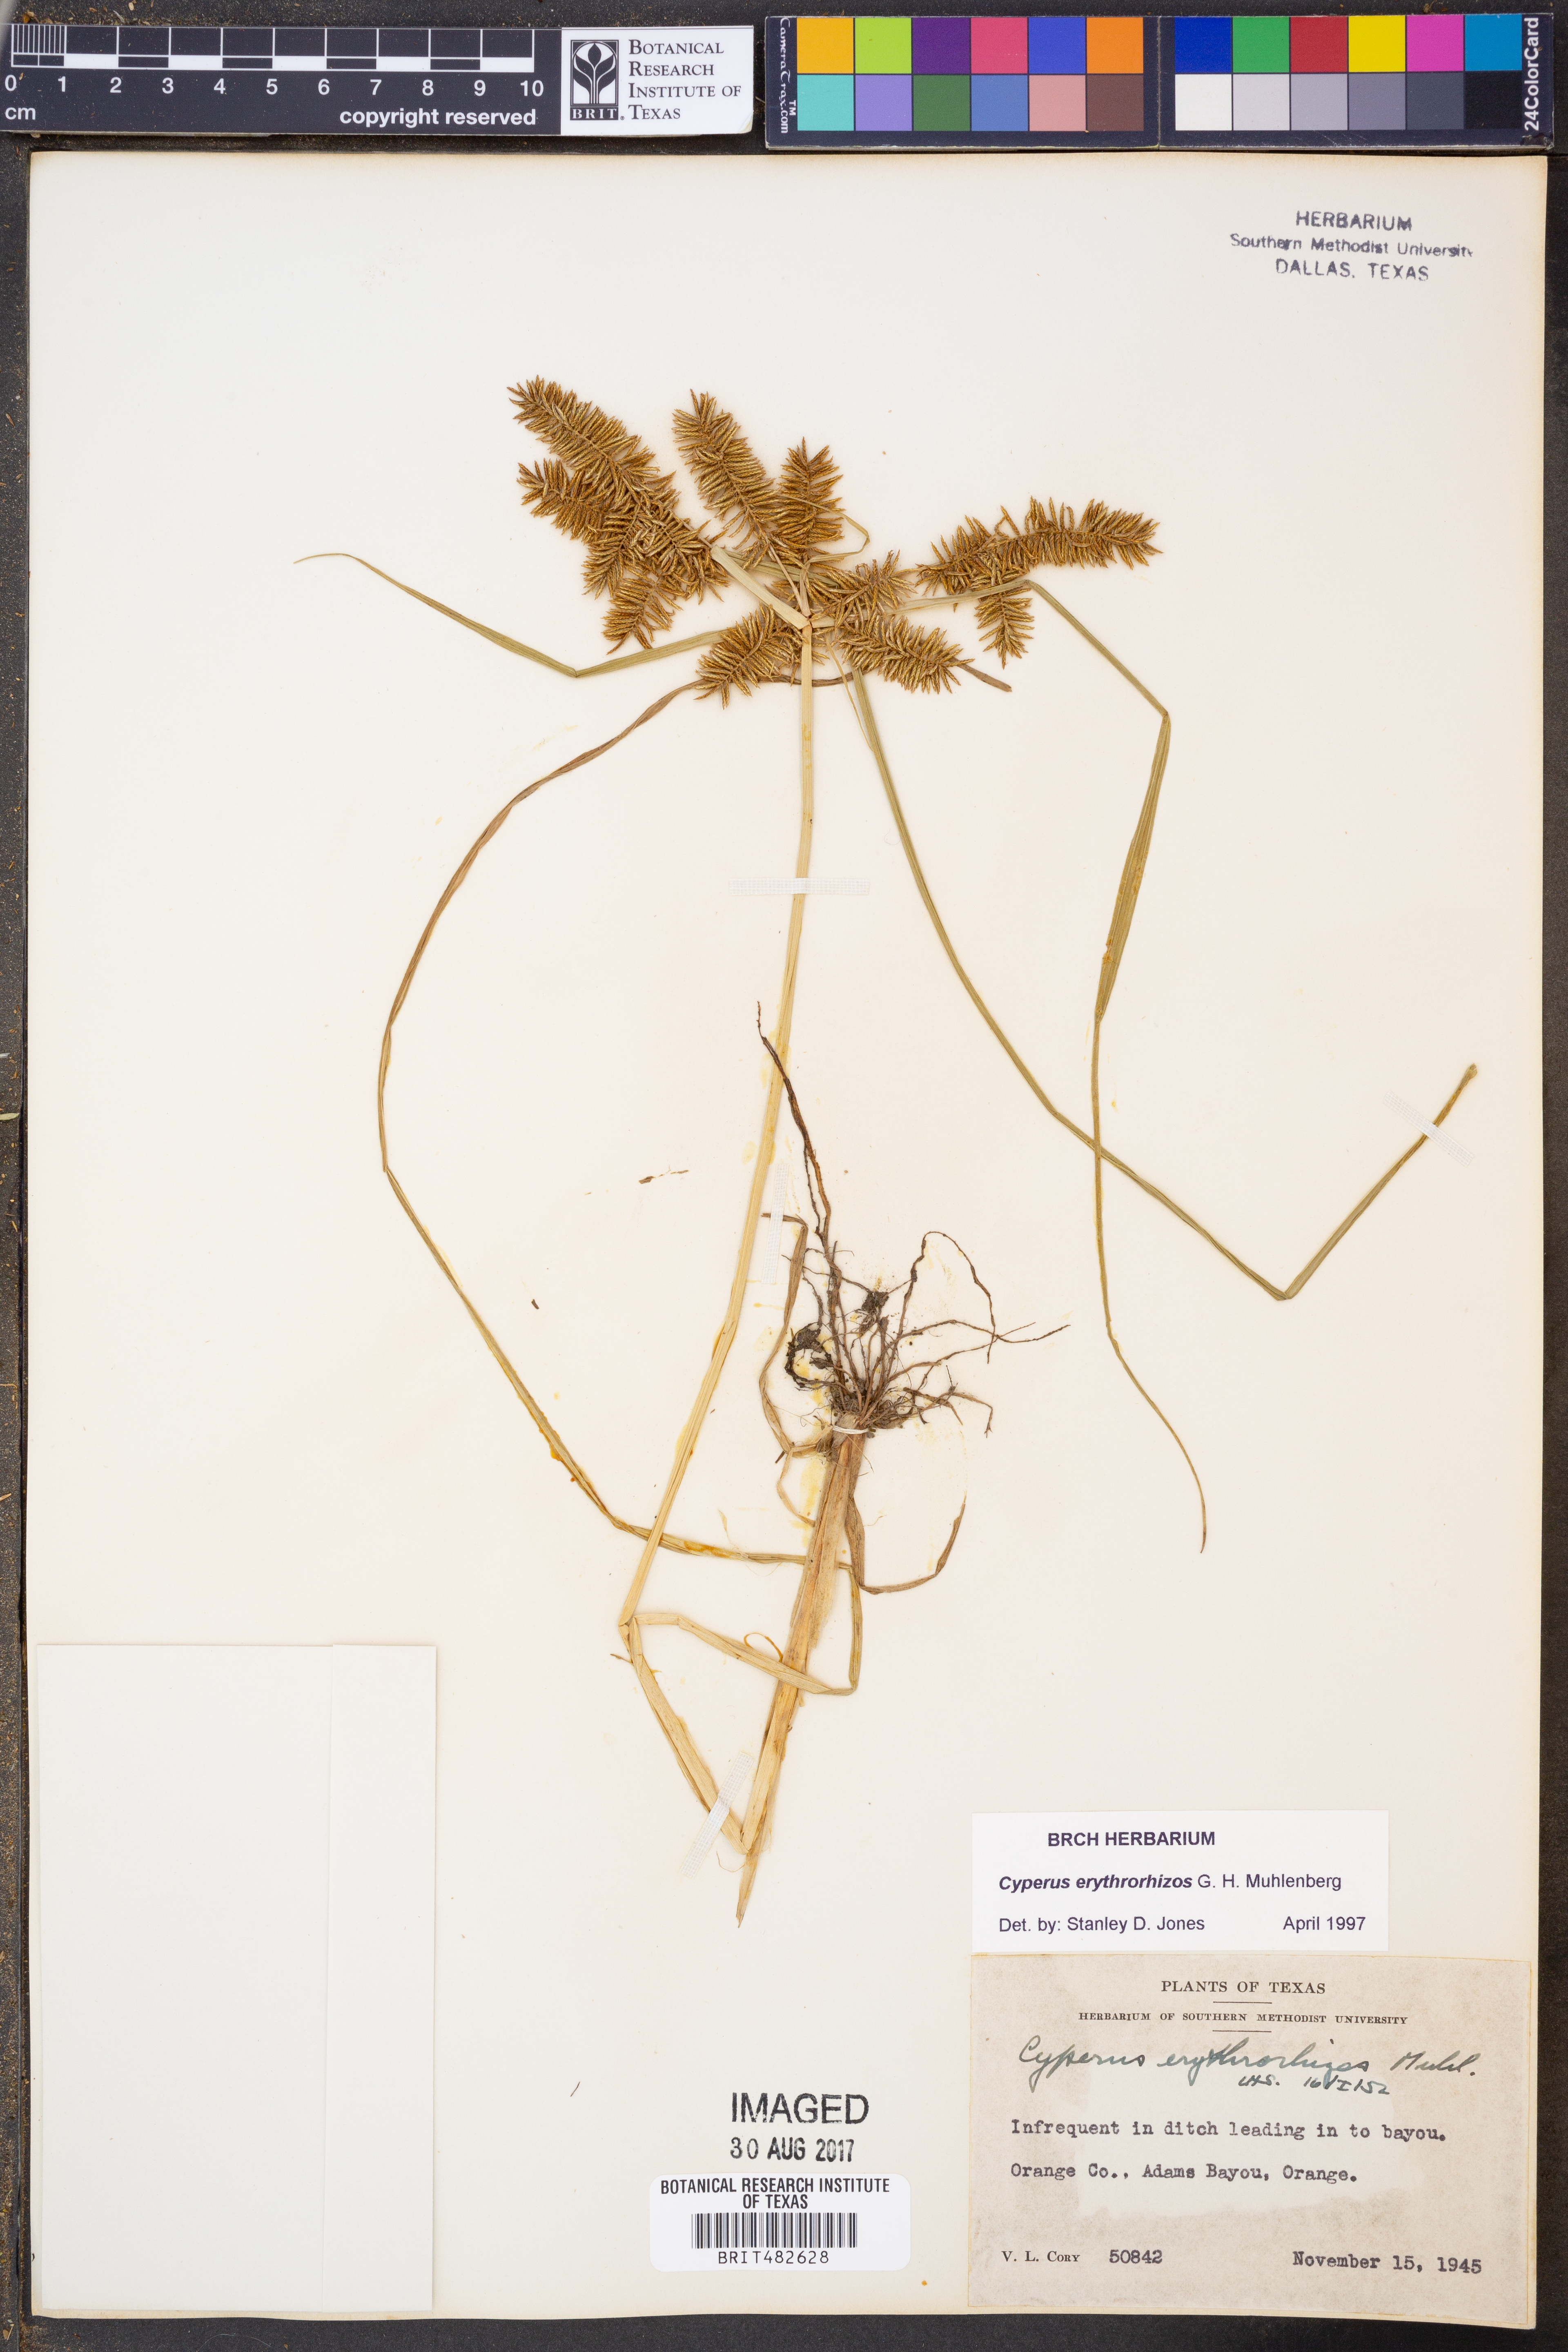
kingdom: Plantae
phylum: Tracheophyta
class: Liliopsida
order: Poales
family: Cyperaceae
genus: Cyperus
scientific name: Cyperus erythrorhizos
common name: Red-root flat sedge
